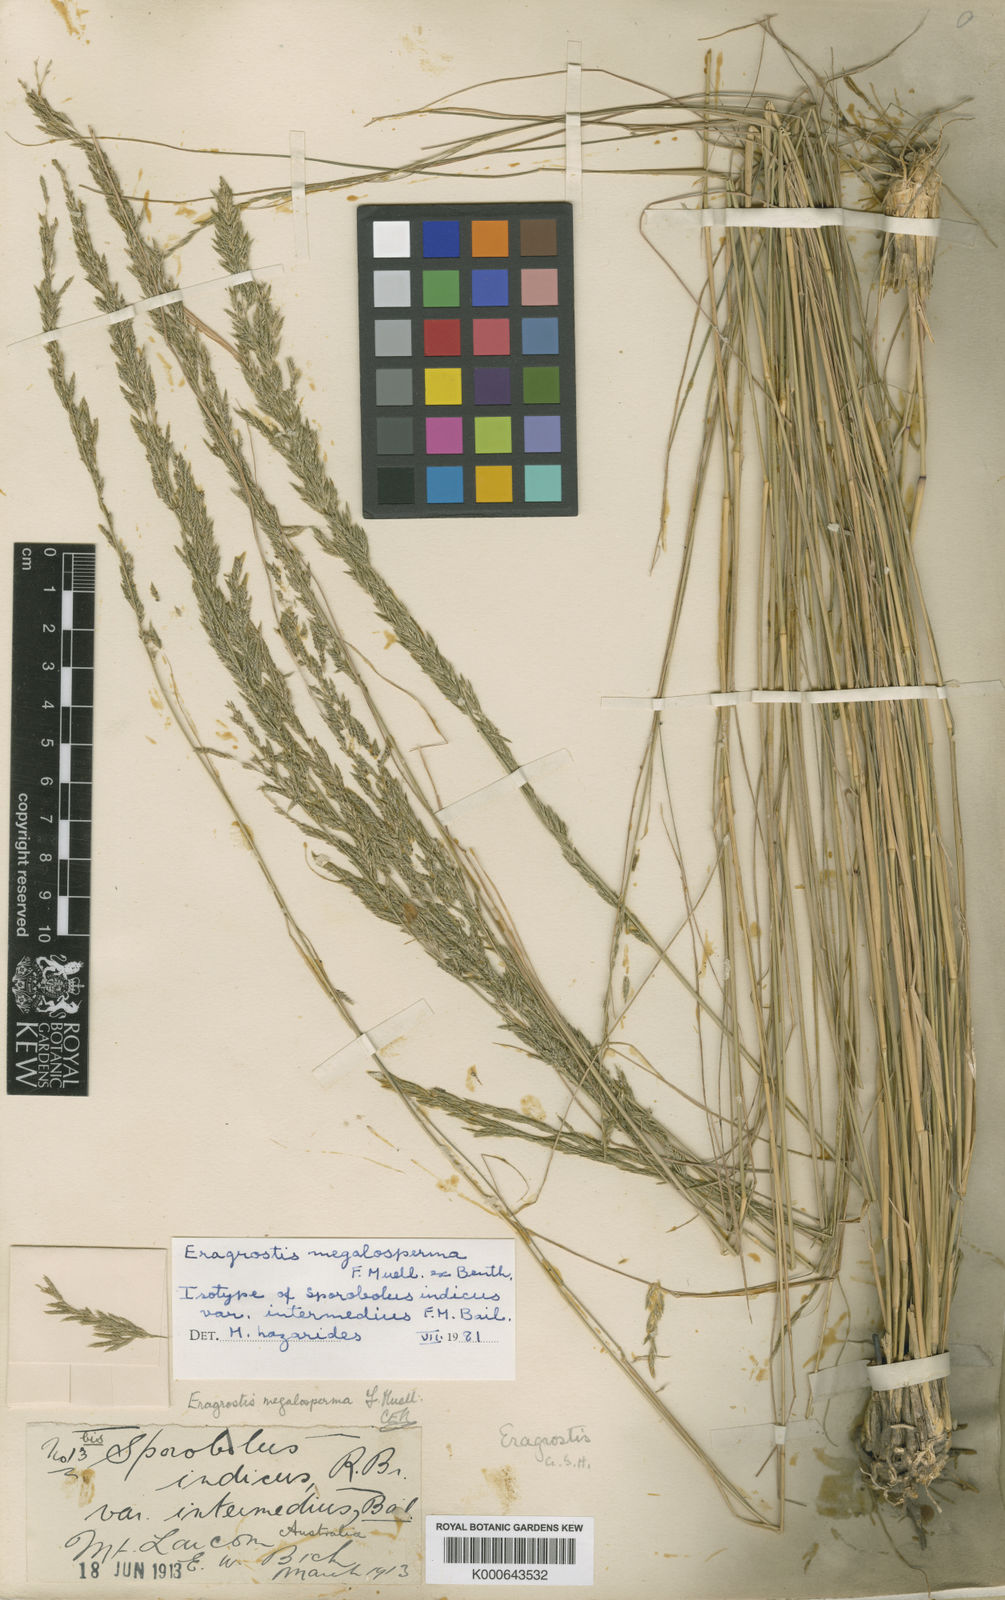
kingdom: Plantae
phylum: Tracheophyta
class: Liliopsida
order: Poales
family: Poaceae
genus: Sporobolus
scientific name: Sporobolus megalospermus
